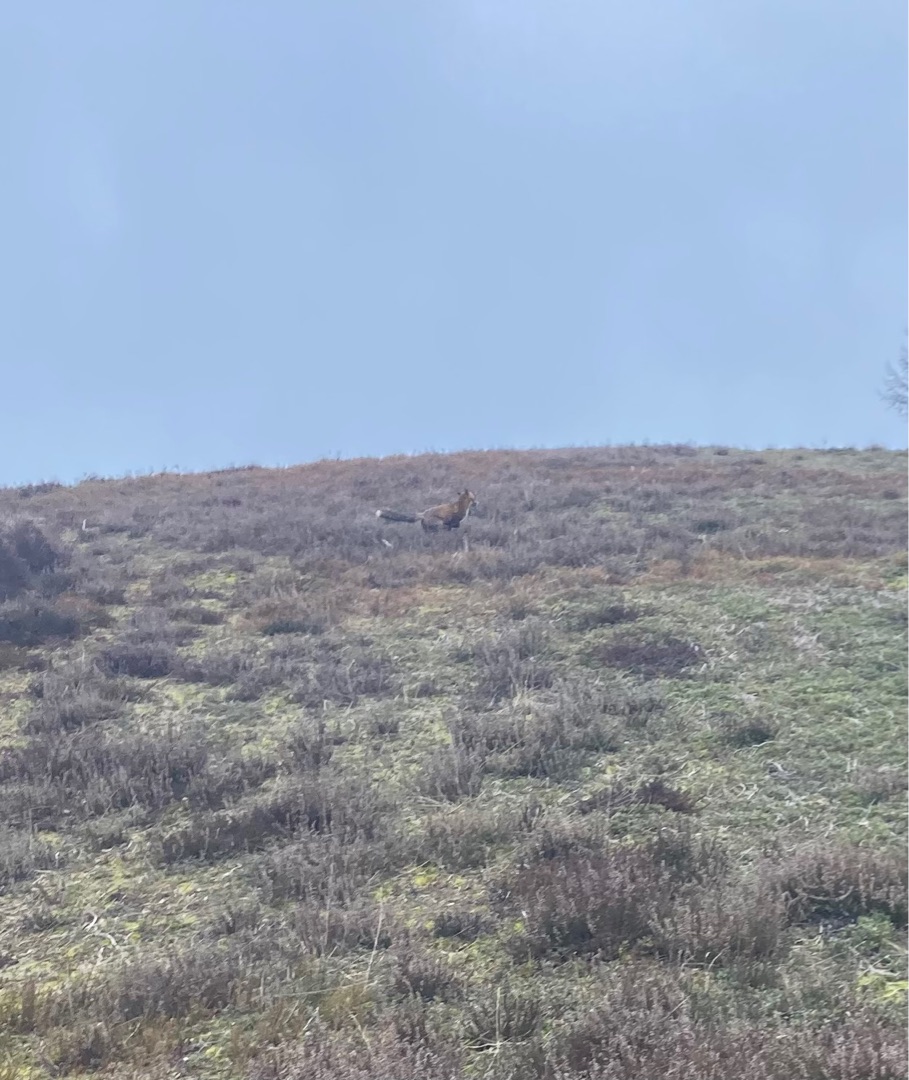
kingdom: Animalia
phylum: Chordata
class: Mammalia
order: Carnivora
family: Canidae
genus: Vulpes
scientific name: Vulpes vulpes
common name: Ræv
